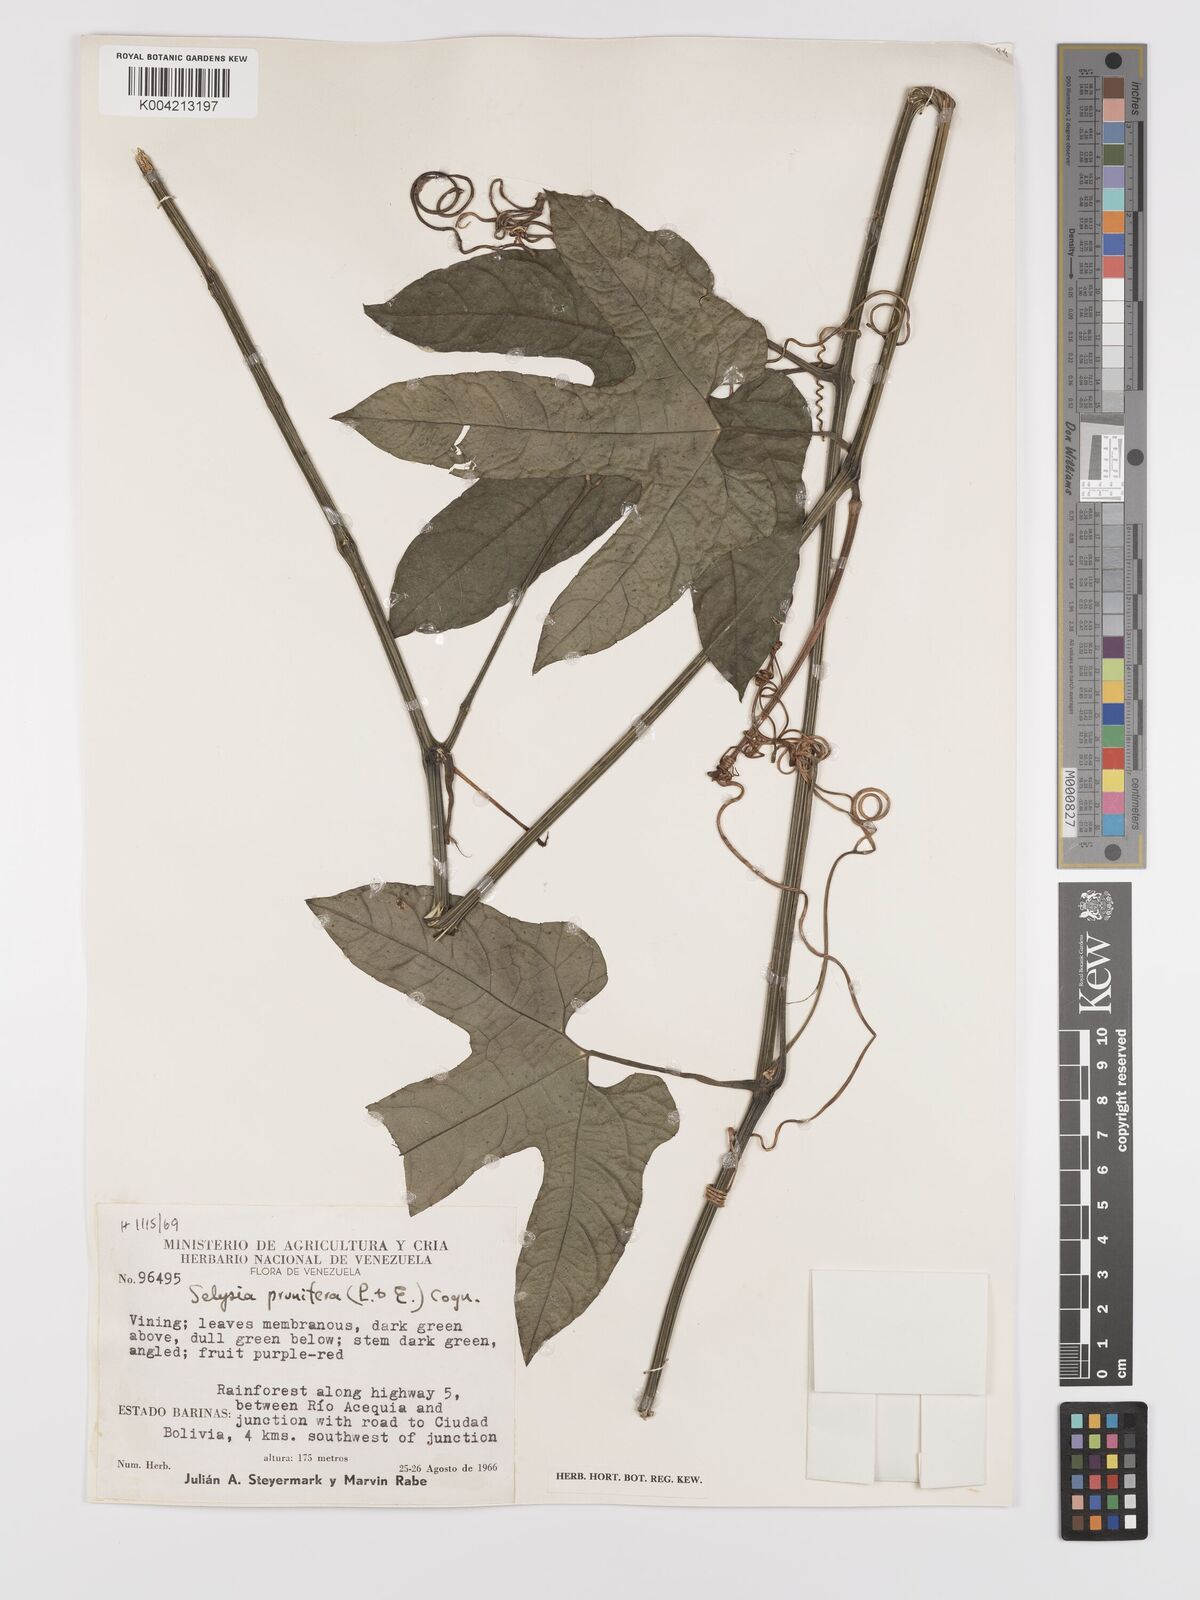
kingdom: Plantae
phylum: Tracheophyta
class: Magnoliopsida
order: Cucurbitales
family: Cucurbitaceae
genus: Cayaponia
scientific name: Cayaponia prunifera
